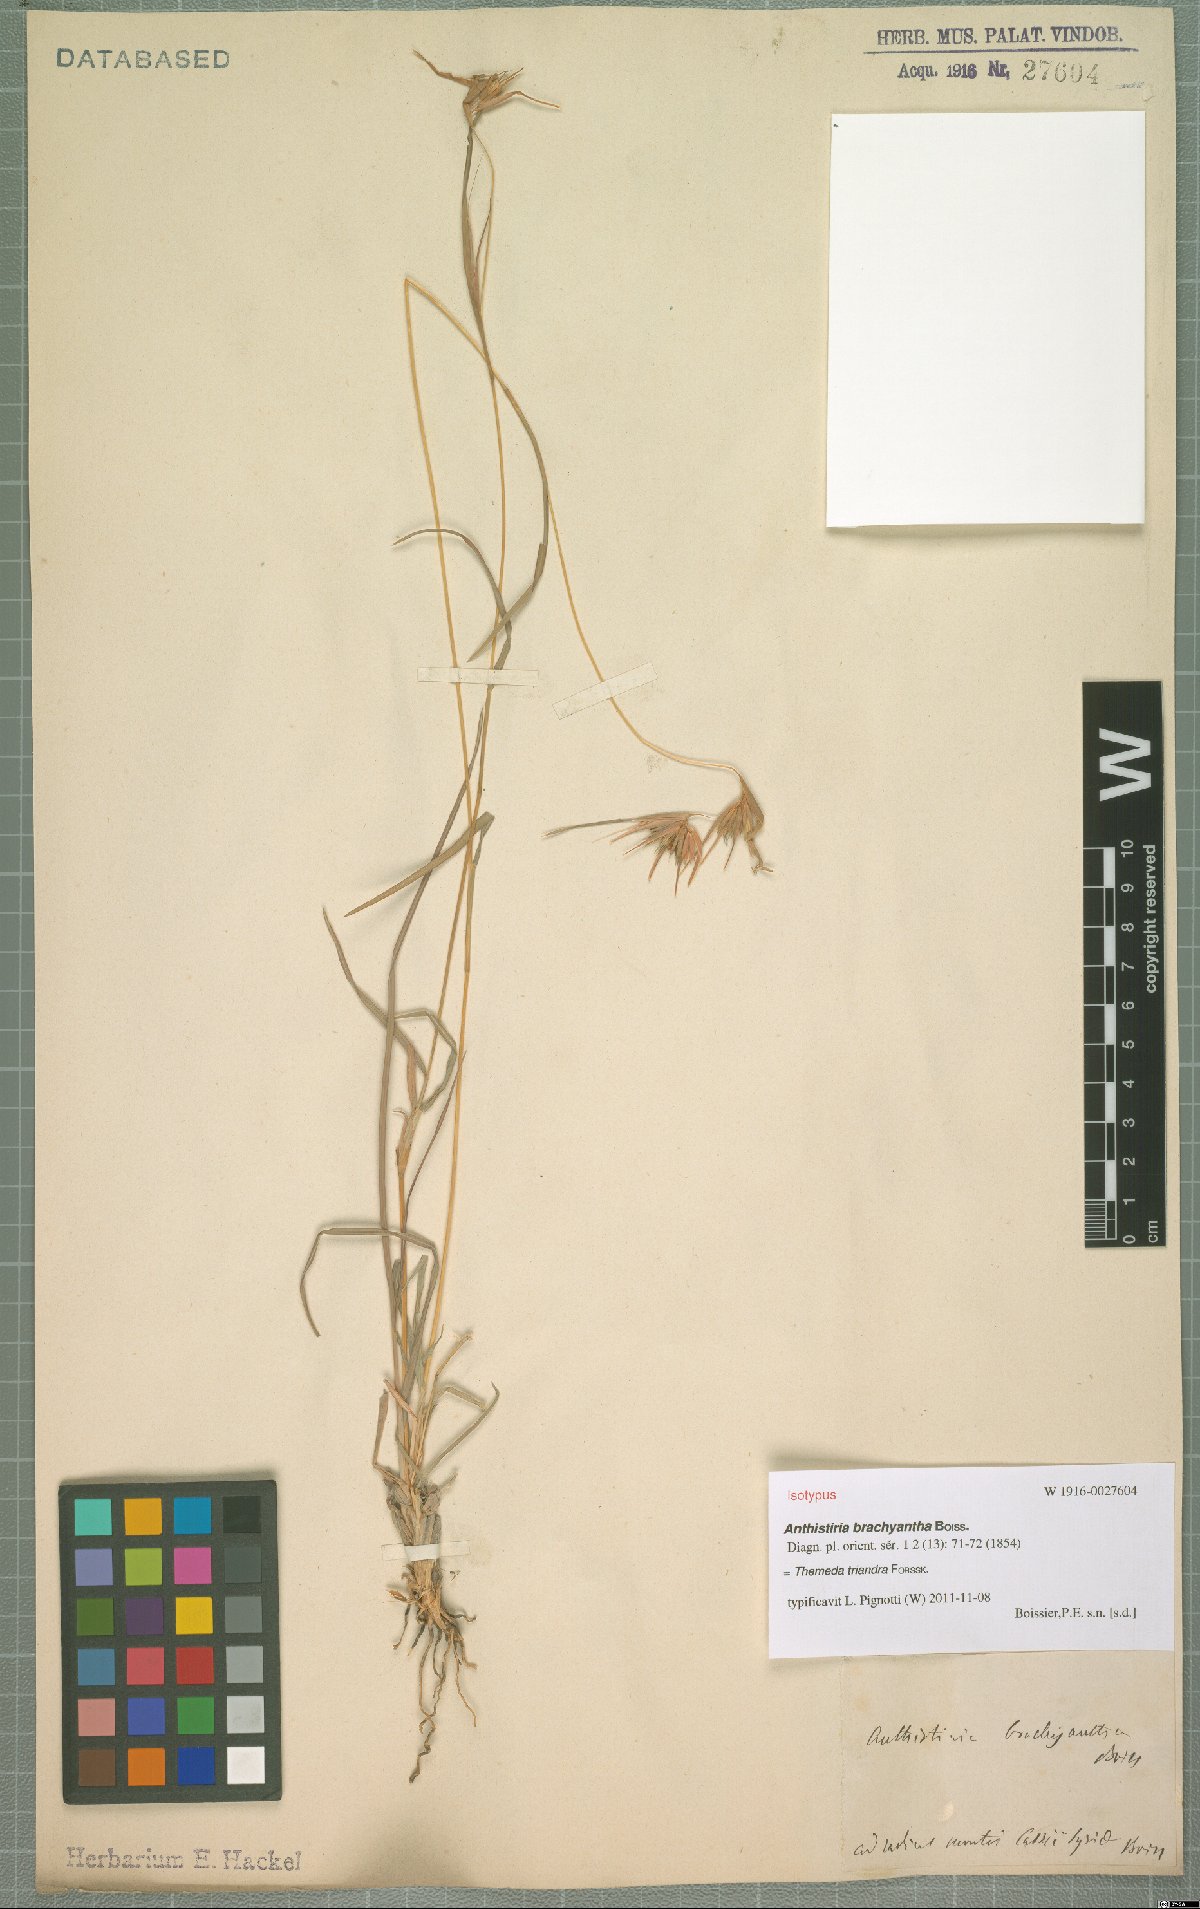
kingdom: Plantae
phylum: Tracheophyta
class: Liliopsida
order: Poales
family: Poaceae
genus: Themeda
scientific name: Themeda triandra
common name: Kangaroo grass
